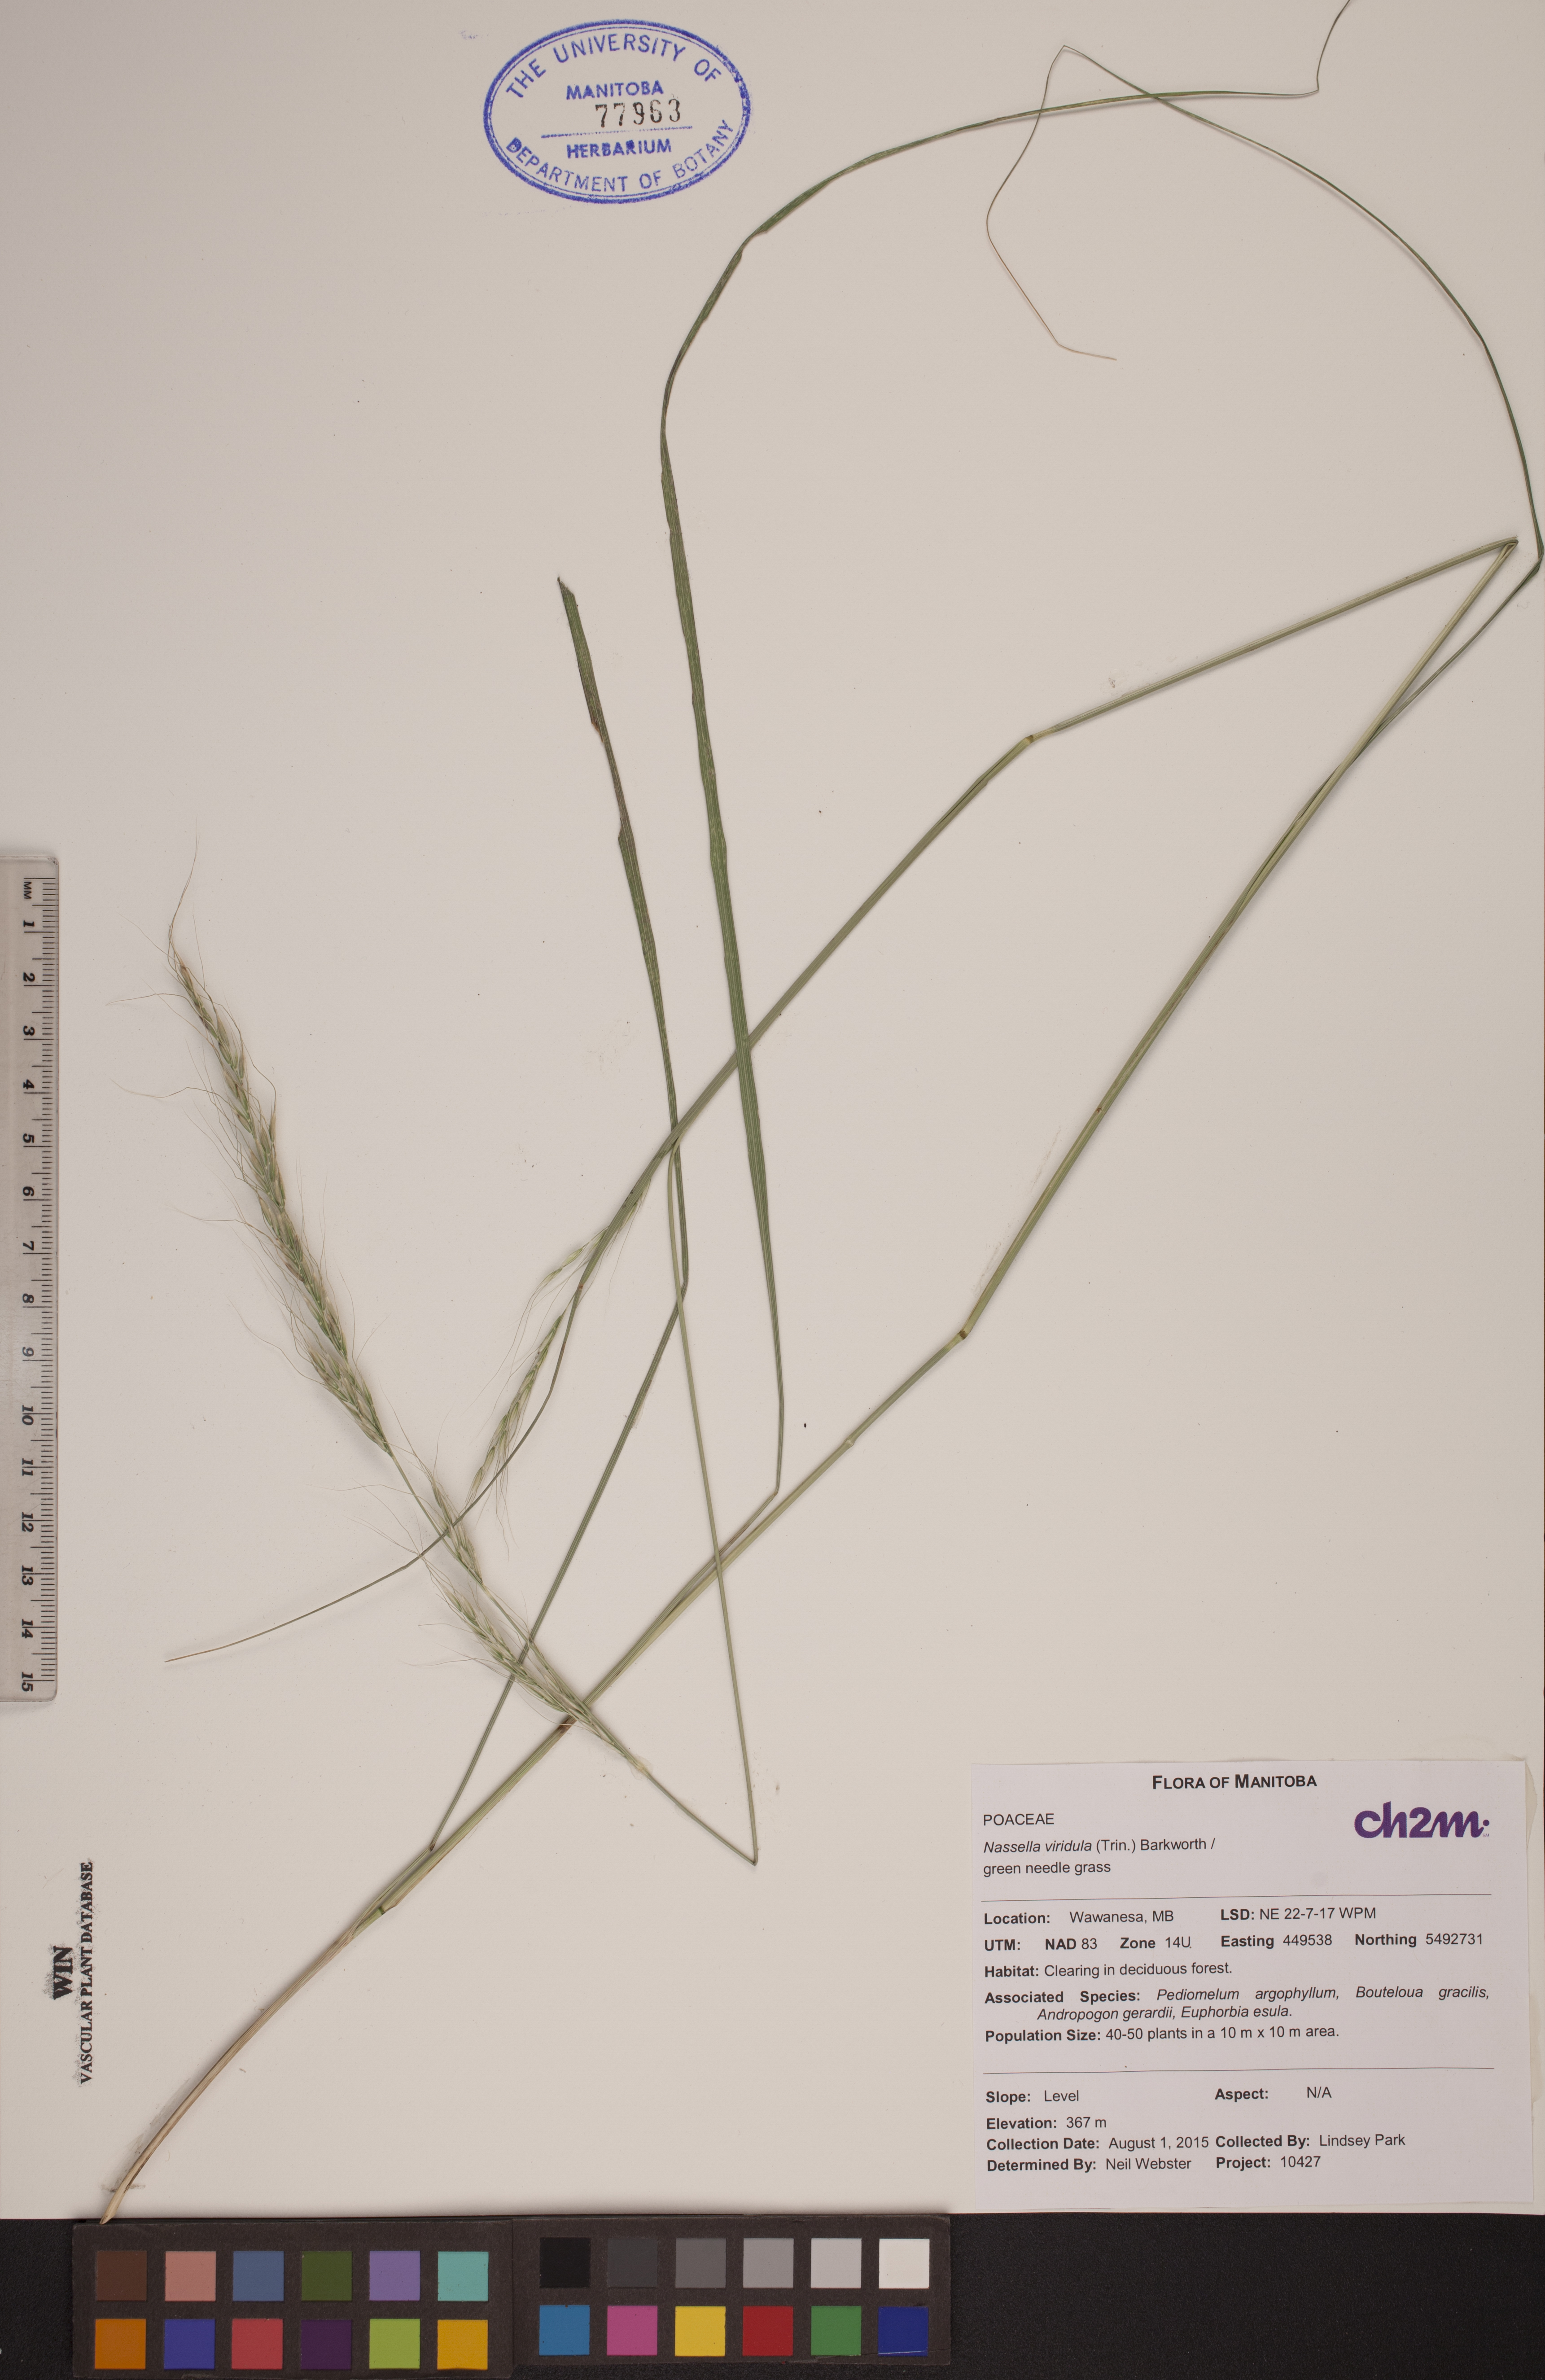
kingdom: Plantae
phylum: Tracheophyta
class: Liliopsida
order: Poales
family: Poaceae
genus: Nassella
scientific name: Nassella viridula
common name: Green needlegrass
